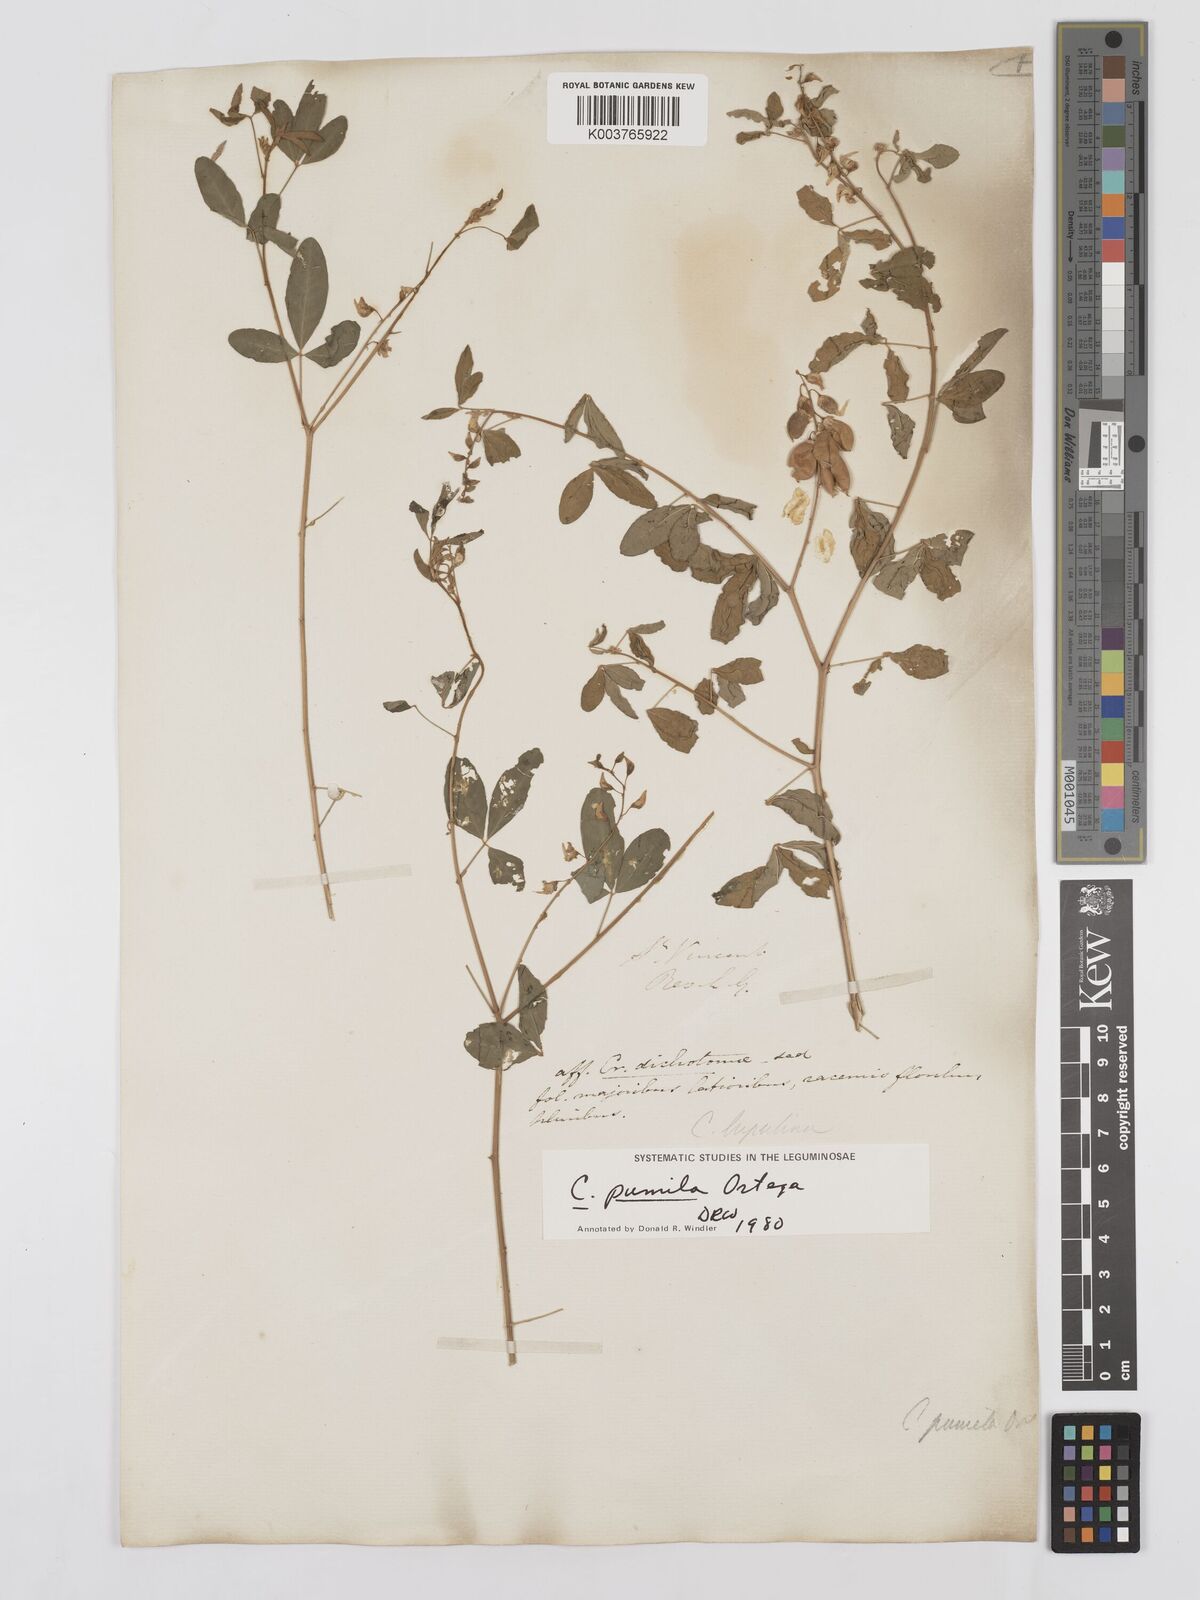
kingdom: Plantae
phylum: Tracheophyta
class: Magnoliopsida
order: Fabales
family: Fabaceae
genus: Crotalaria
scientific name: Crotalaria pumila
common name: Low rattlebox
